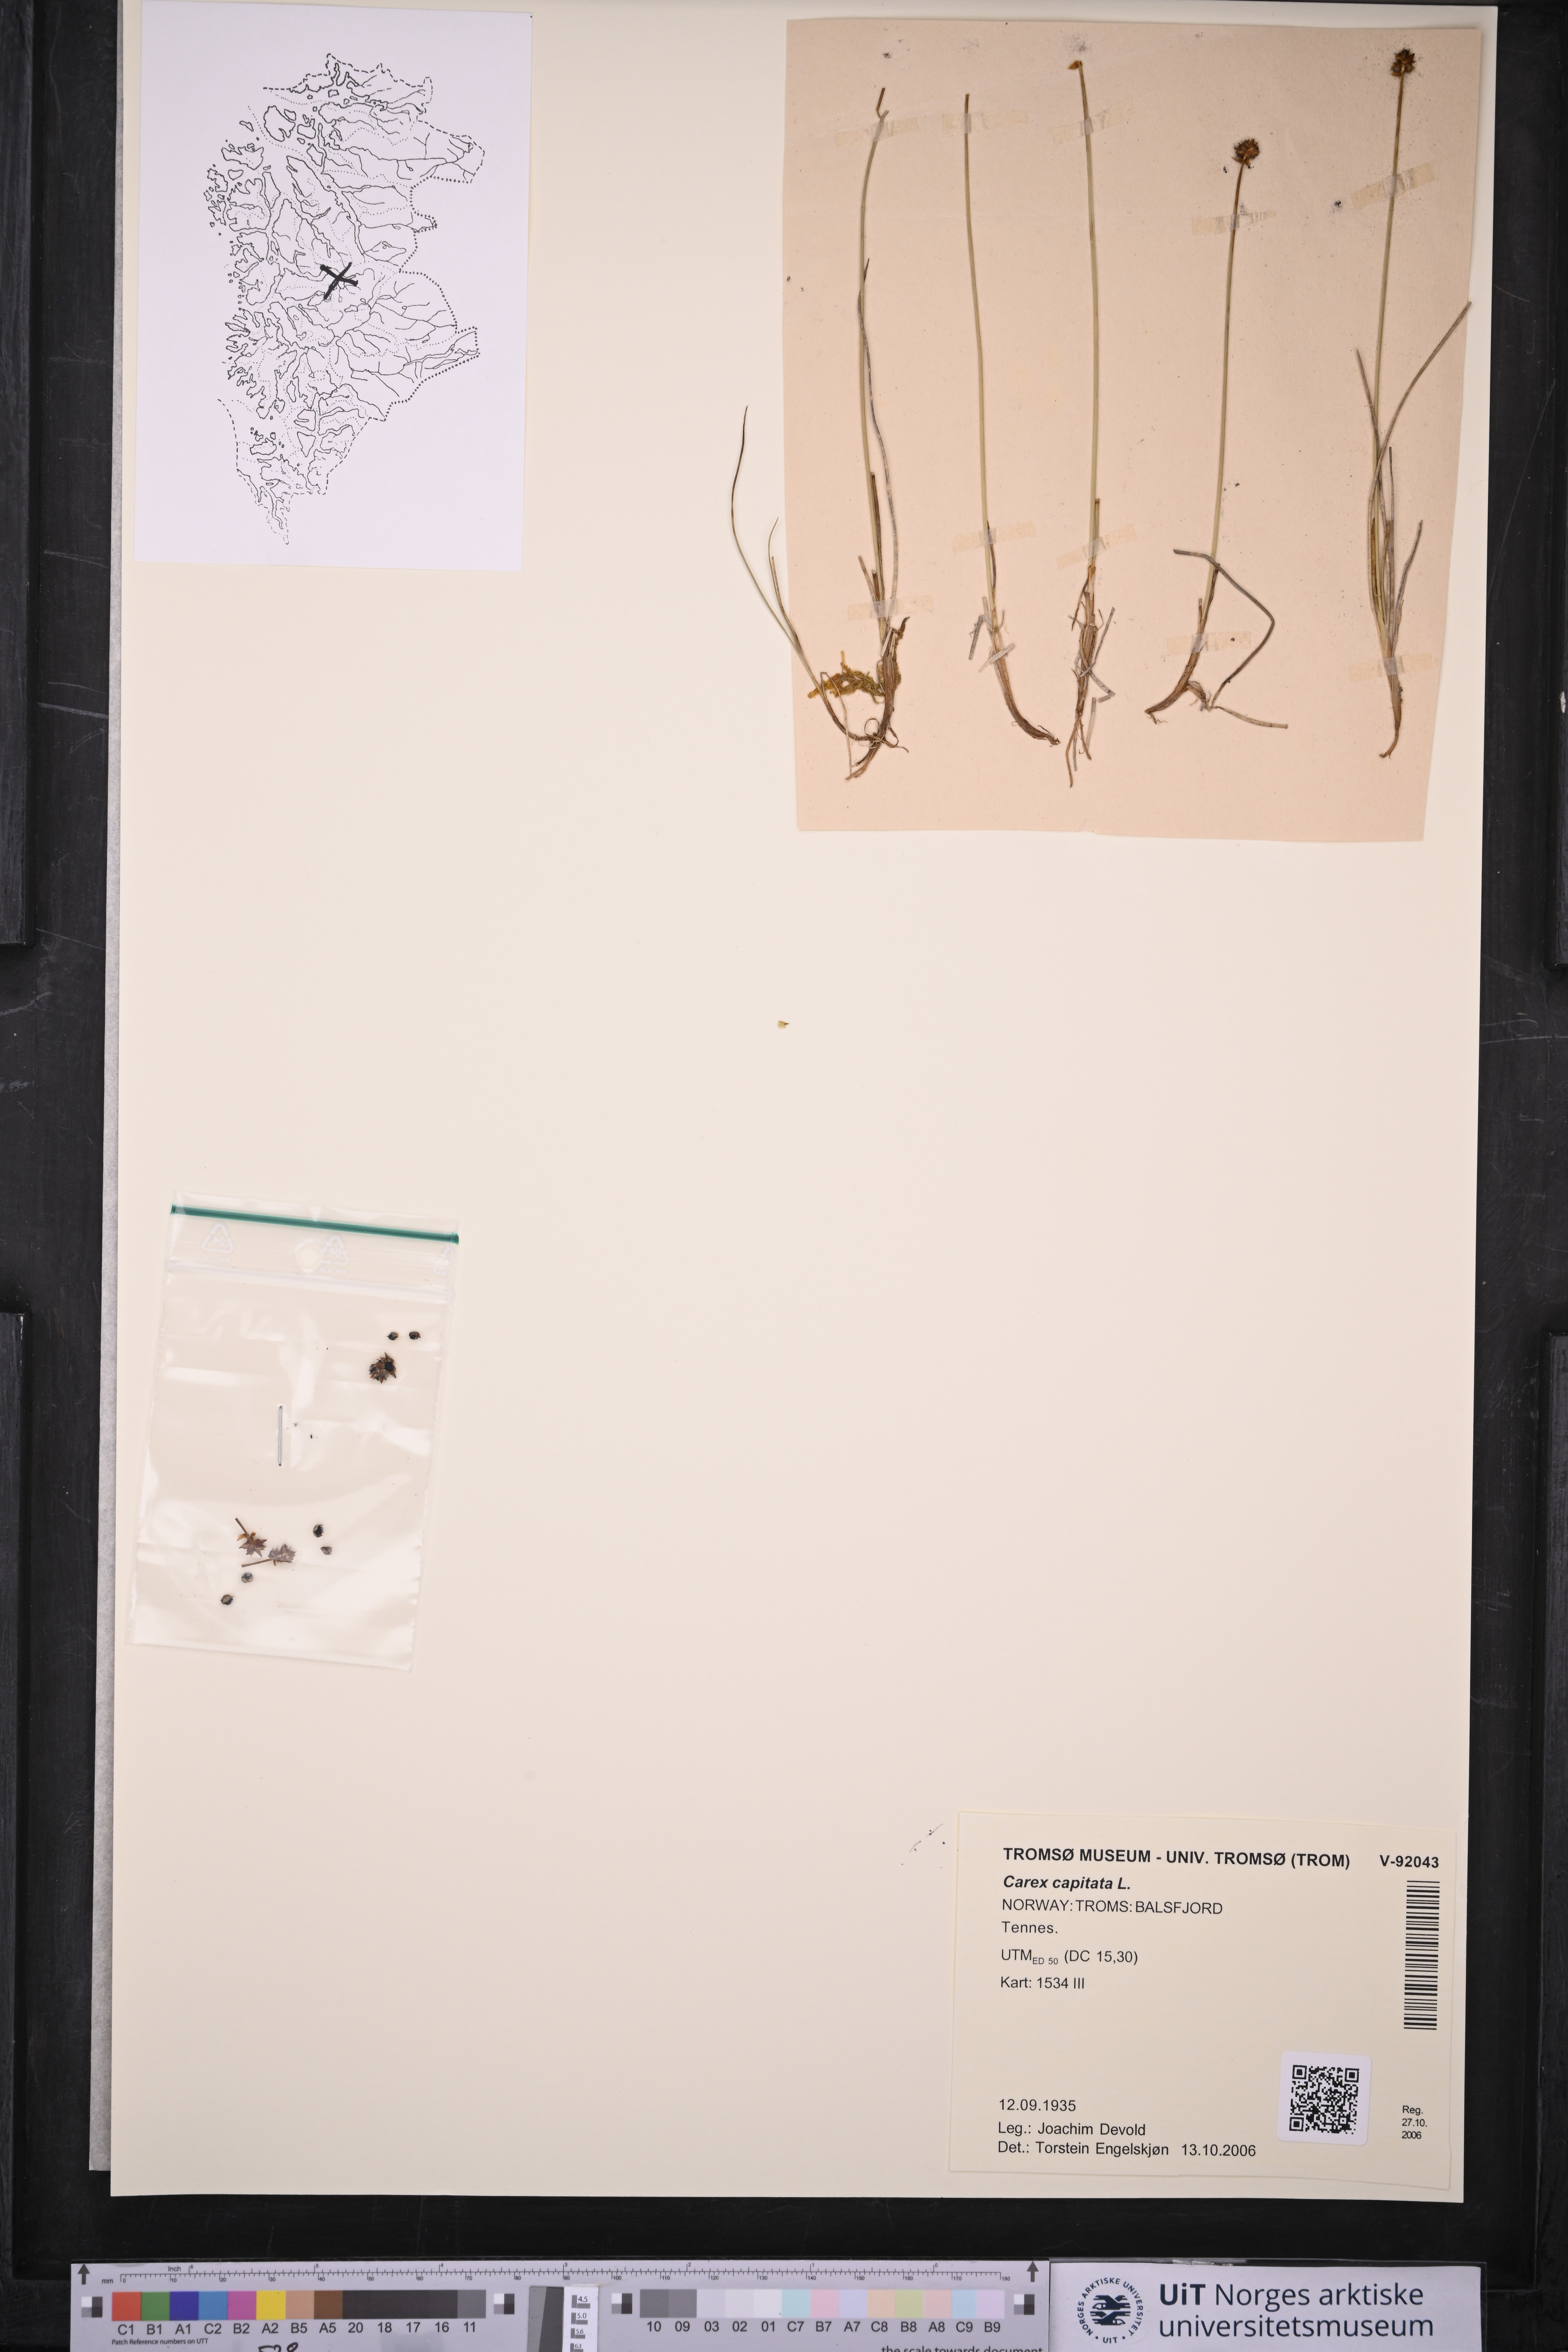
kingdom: Plantae
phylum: Tracheophyta
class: Liliopsida
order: Poales
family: Cyperaceae
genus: Carex
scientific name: Carex capitata
